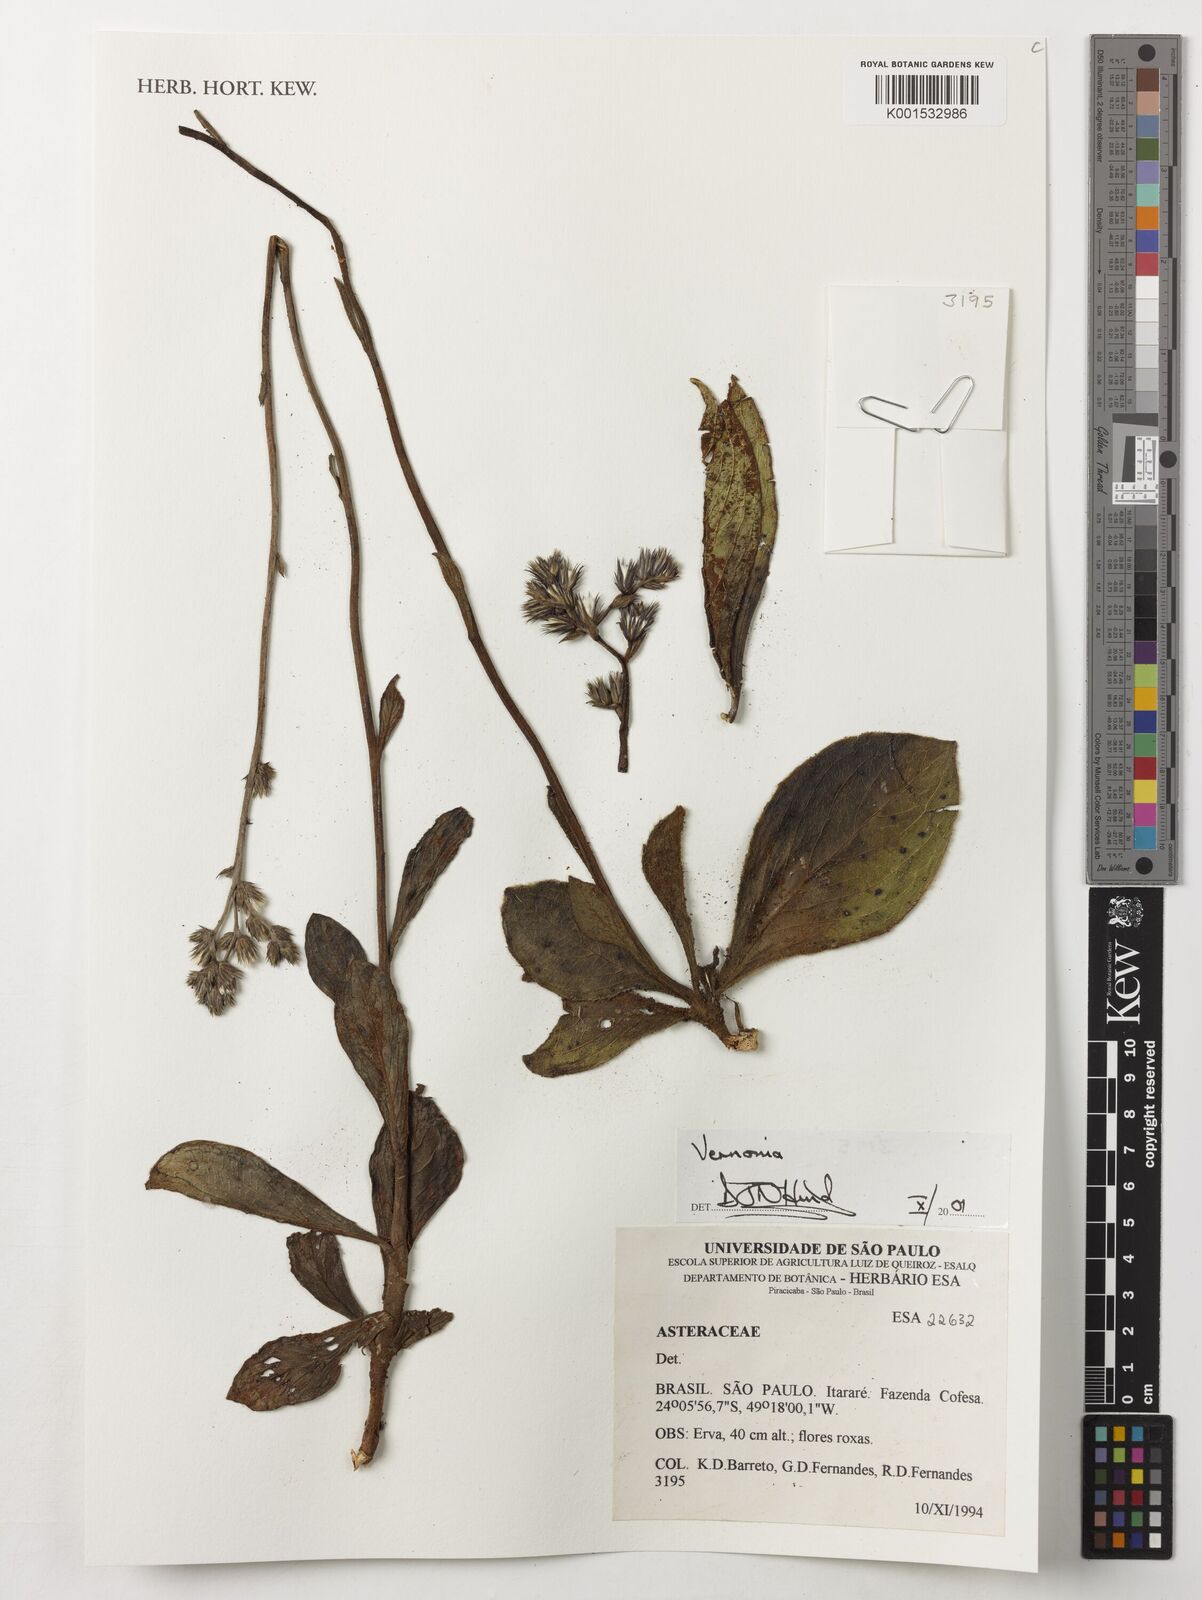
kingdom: Plantae
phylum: Tracheophyta
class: Magnoliopsida
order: Asterales
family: Asteraceae
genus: Vernonia
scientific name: Vernonia
